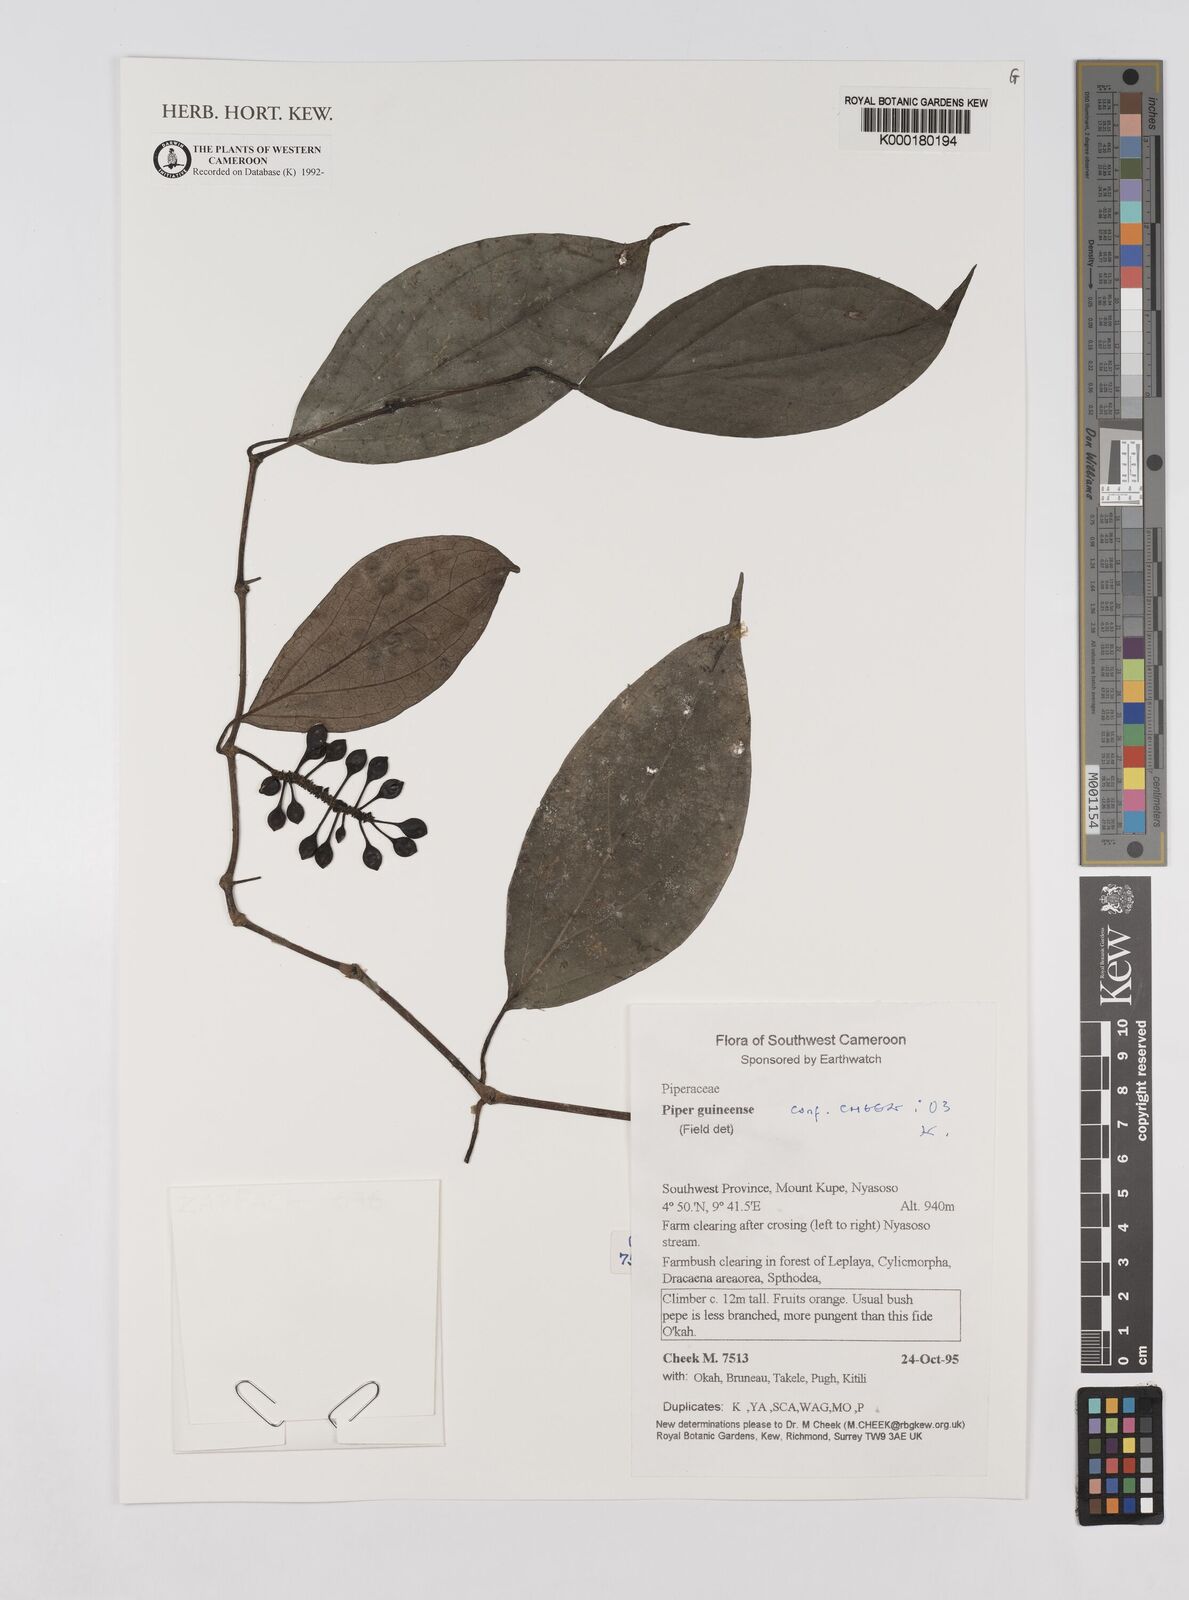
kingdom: Plantae
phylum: Tracheophyta
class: Magnoliopsida
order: Piperales
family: Piperaceae
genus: Piper
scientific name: Piper guineense
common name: Benin pepper
